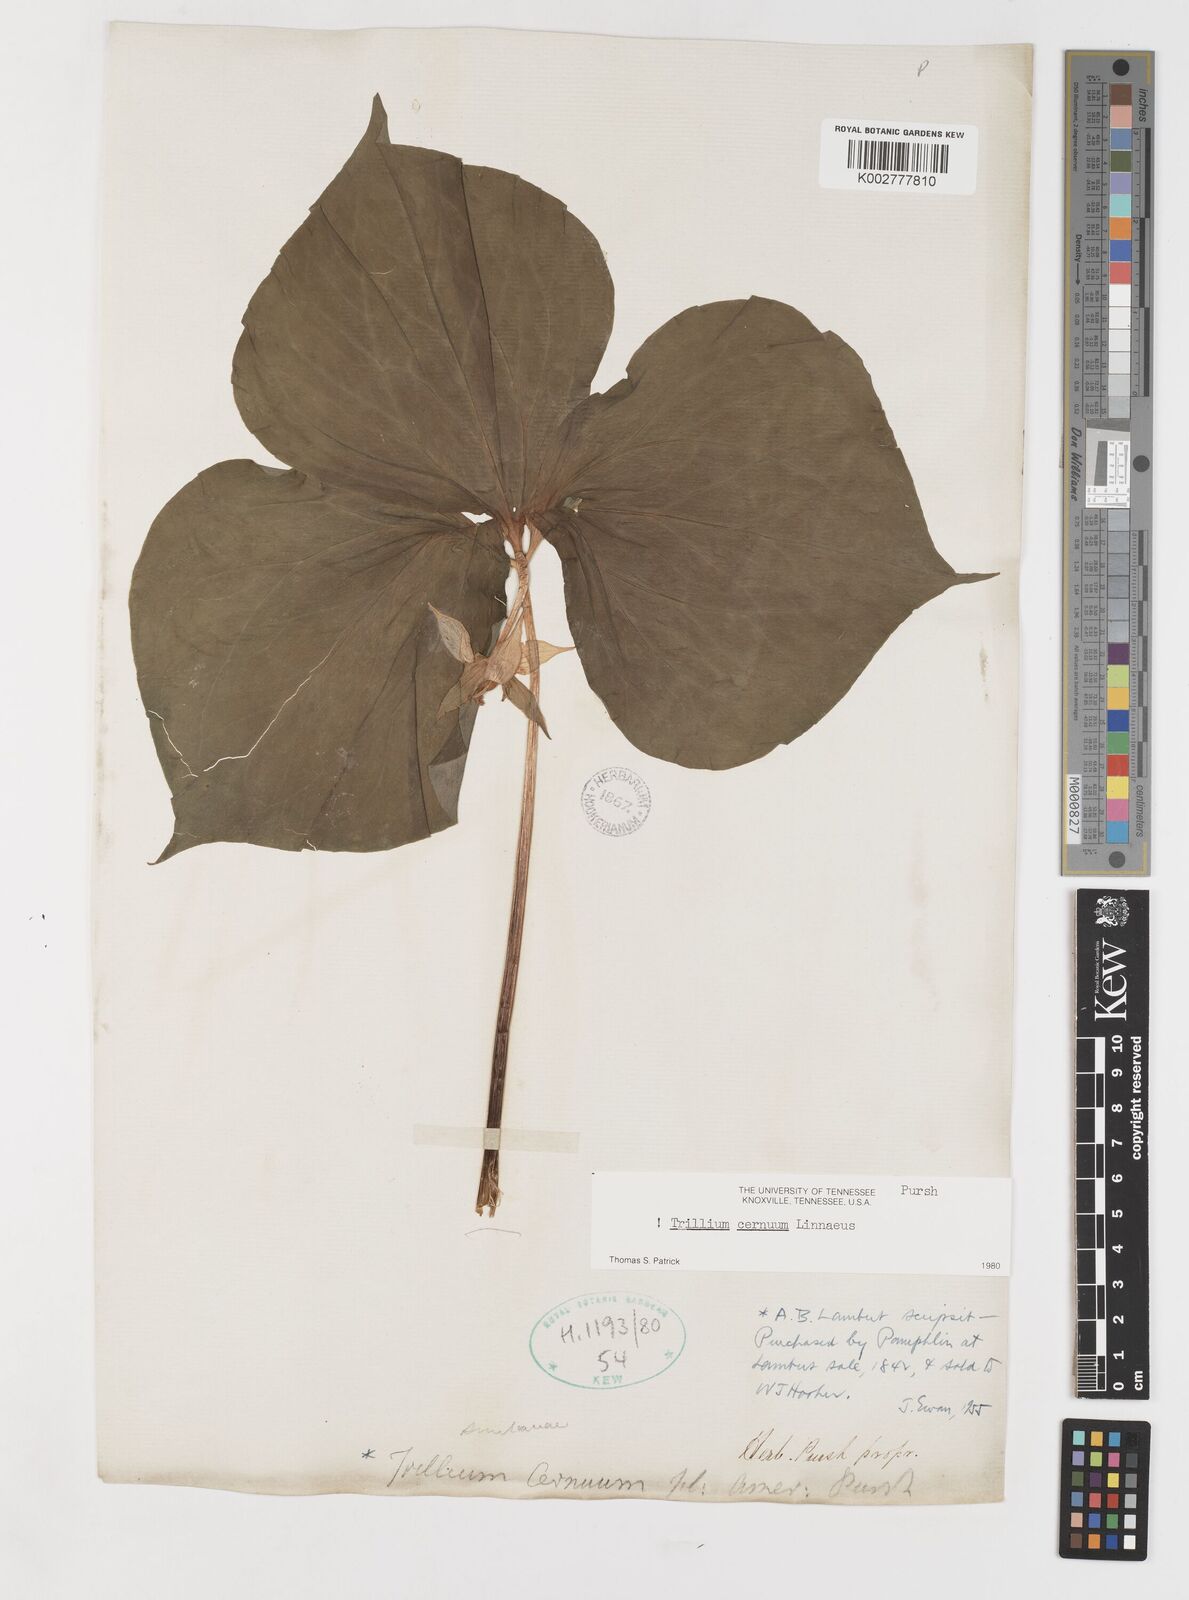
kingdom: Plantae
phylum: Tracheophyta
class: Liliopsida
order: Liliales
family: Melanthiaceae
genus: Trillium
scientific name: Trillium cernuum
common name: Nodding trillium
